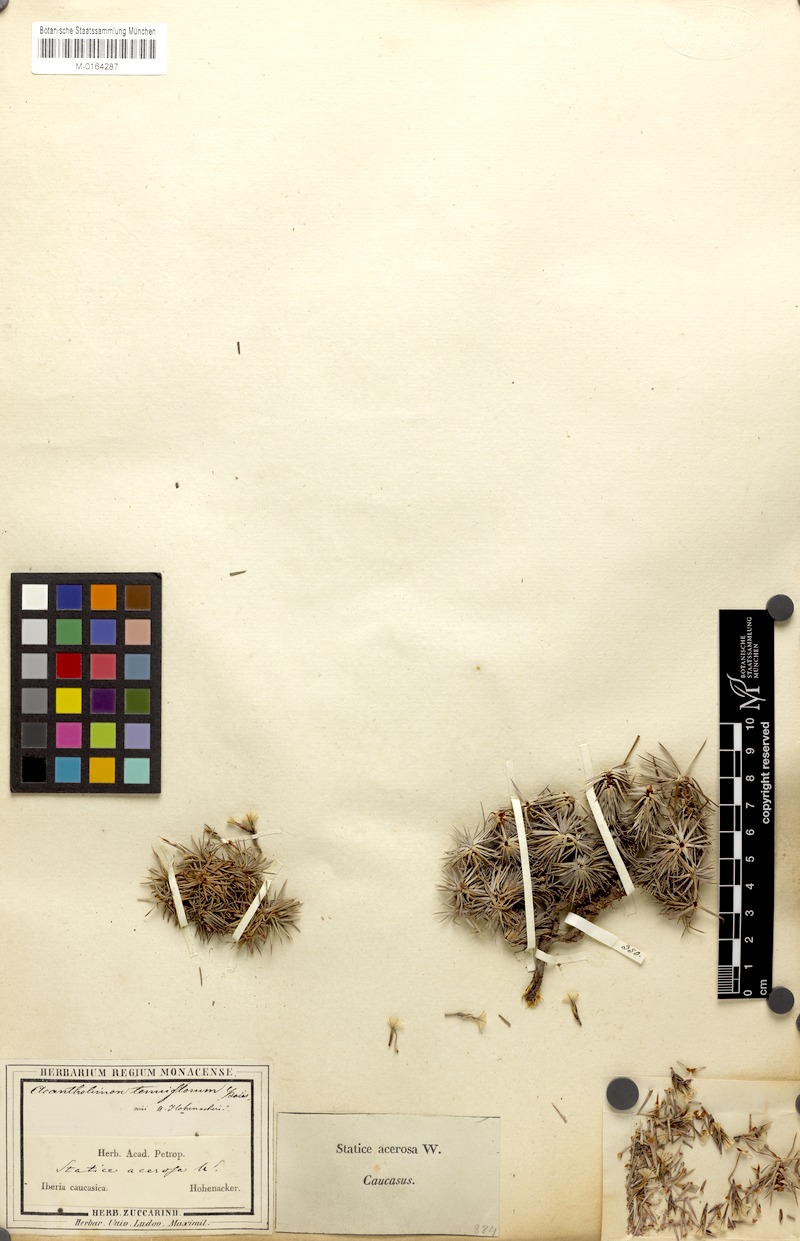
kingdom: Plantae
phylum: Tracheophyta
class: Magnoliopsida
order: Caryophyllales
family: Plumbaginaceae
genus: Acantholimon
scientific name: Acantholimon hohenackeri
